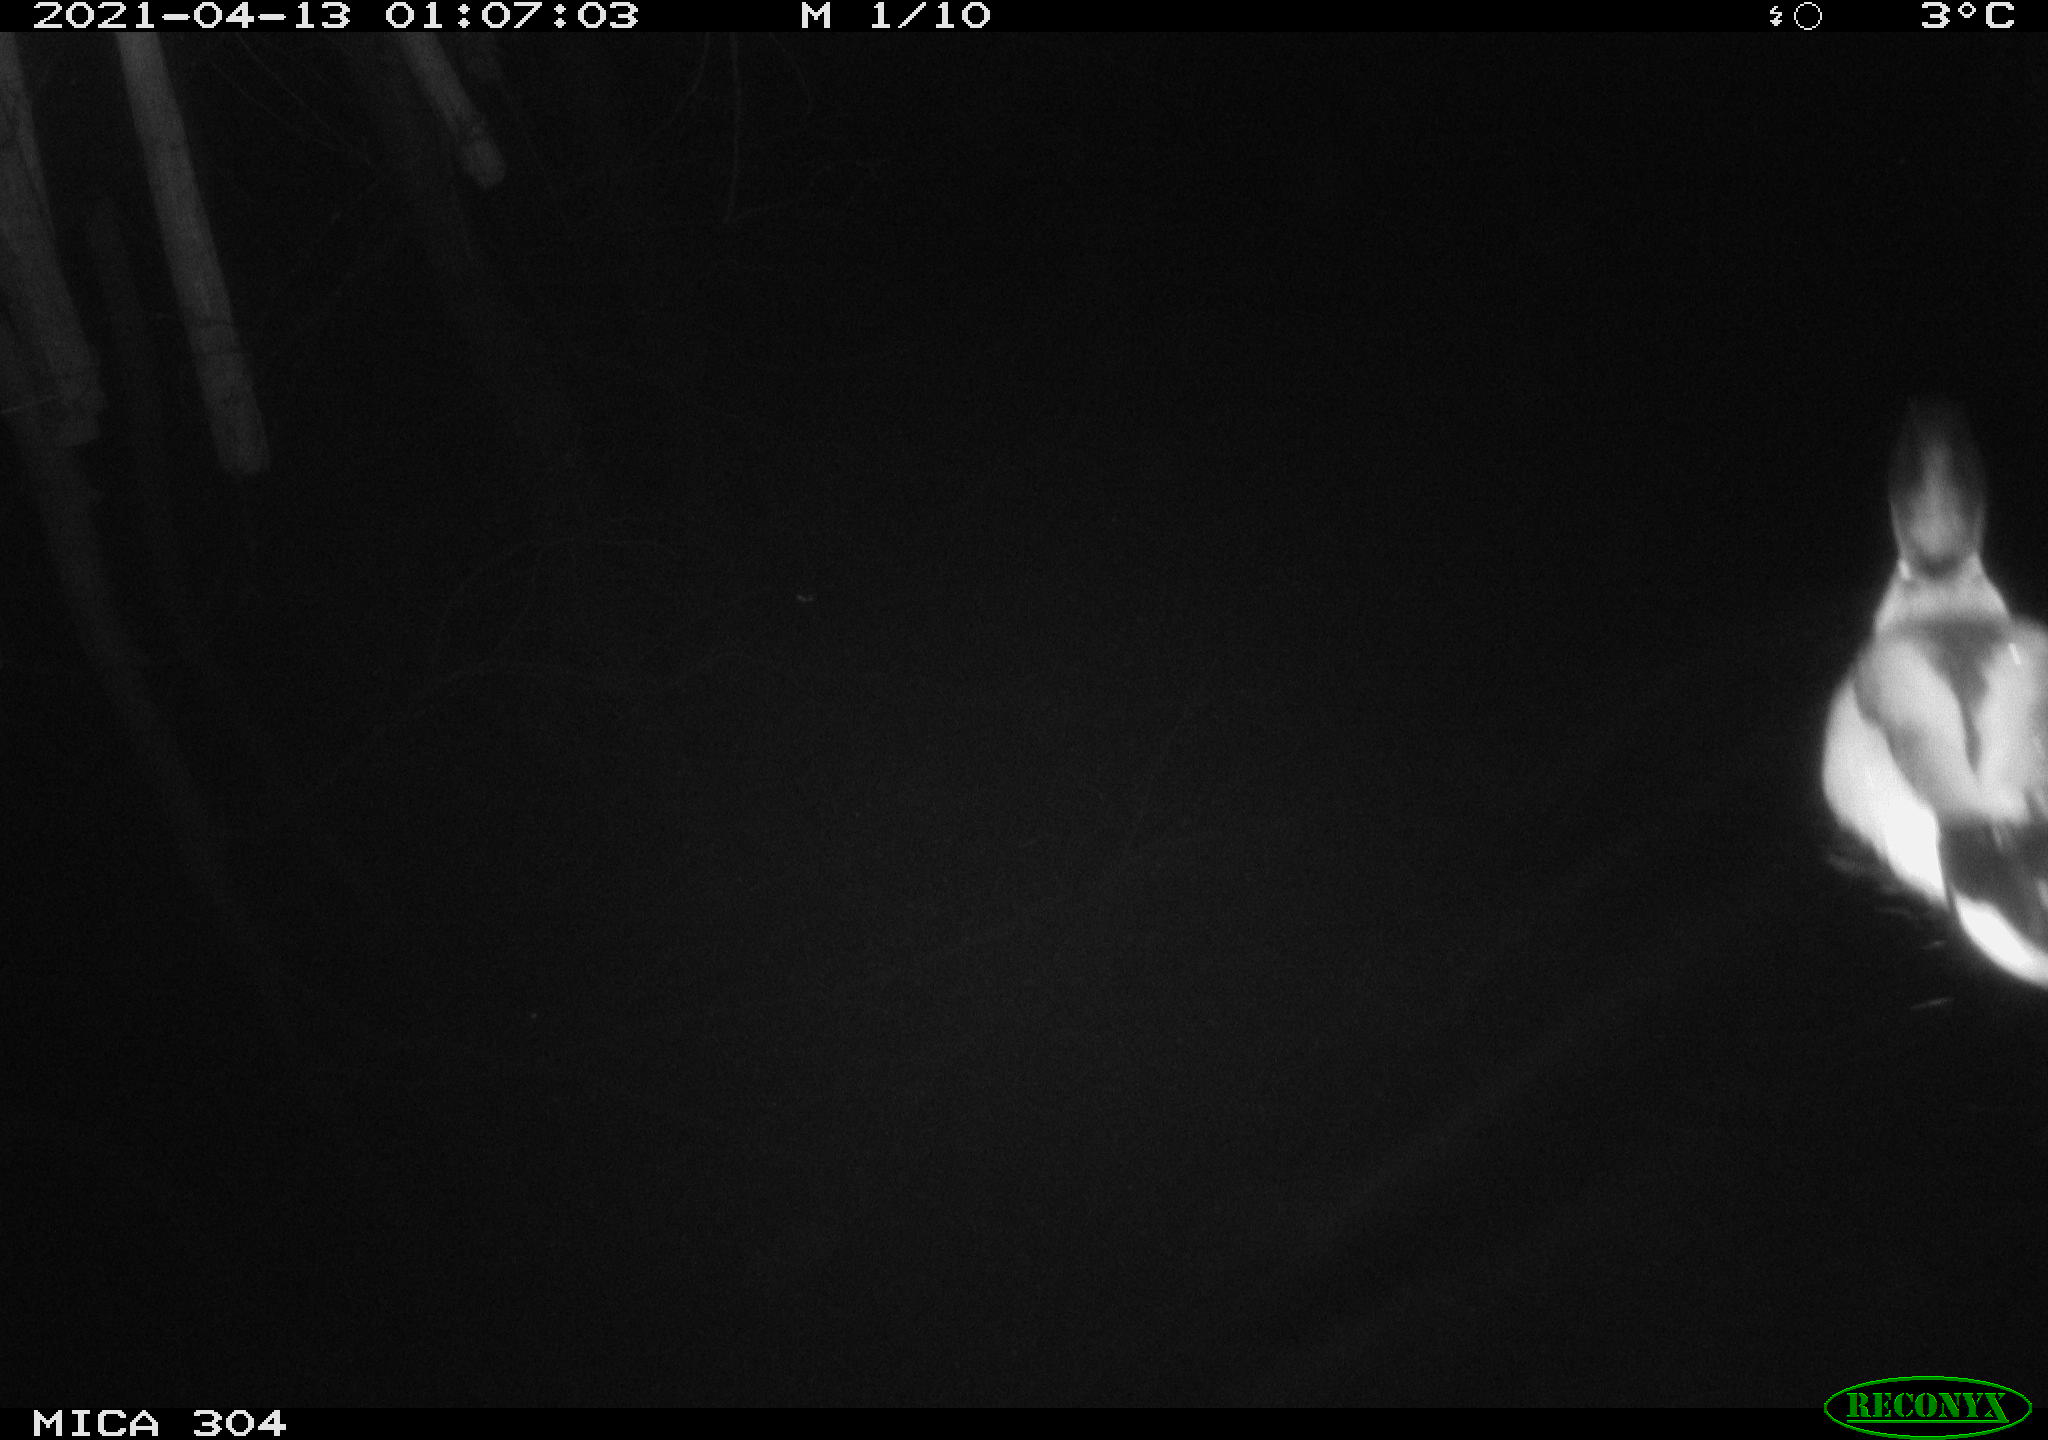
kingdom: Animalia
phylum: Chordata
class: Aves
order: Anseriformes
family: Anatidae
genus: Anas
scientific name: Anas
